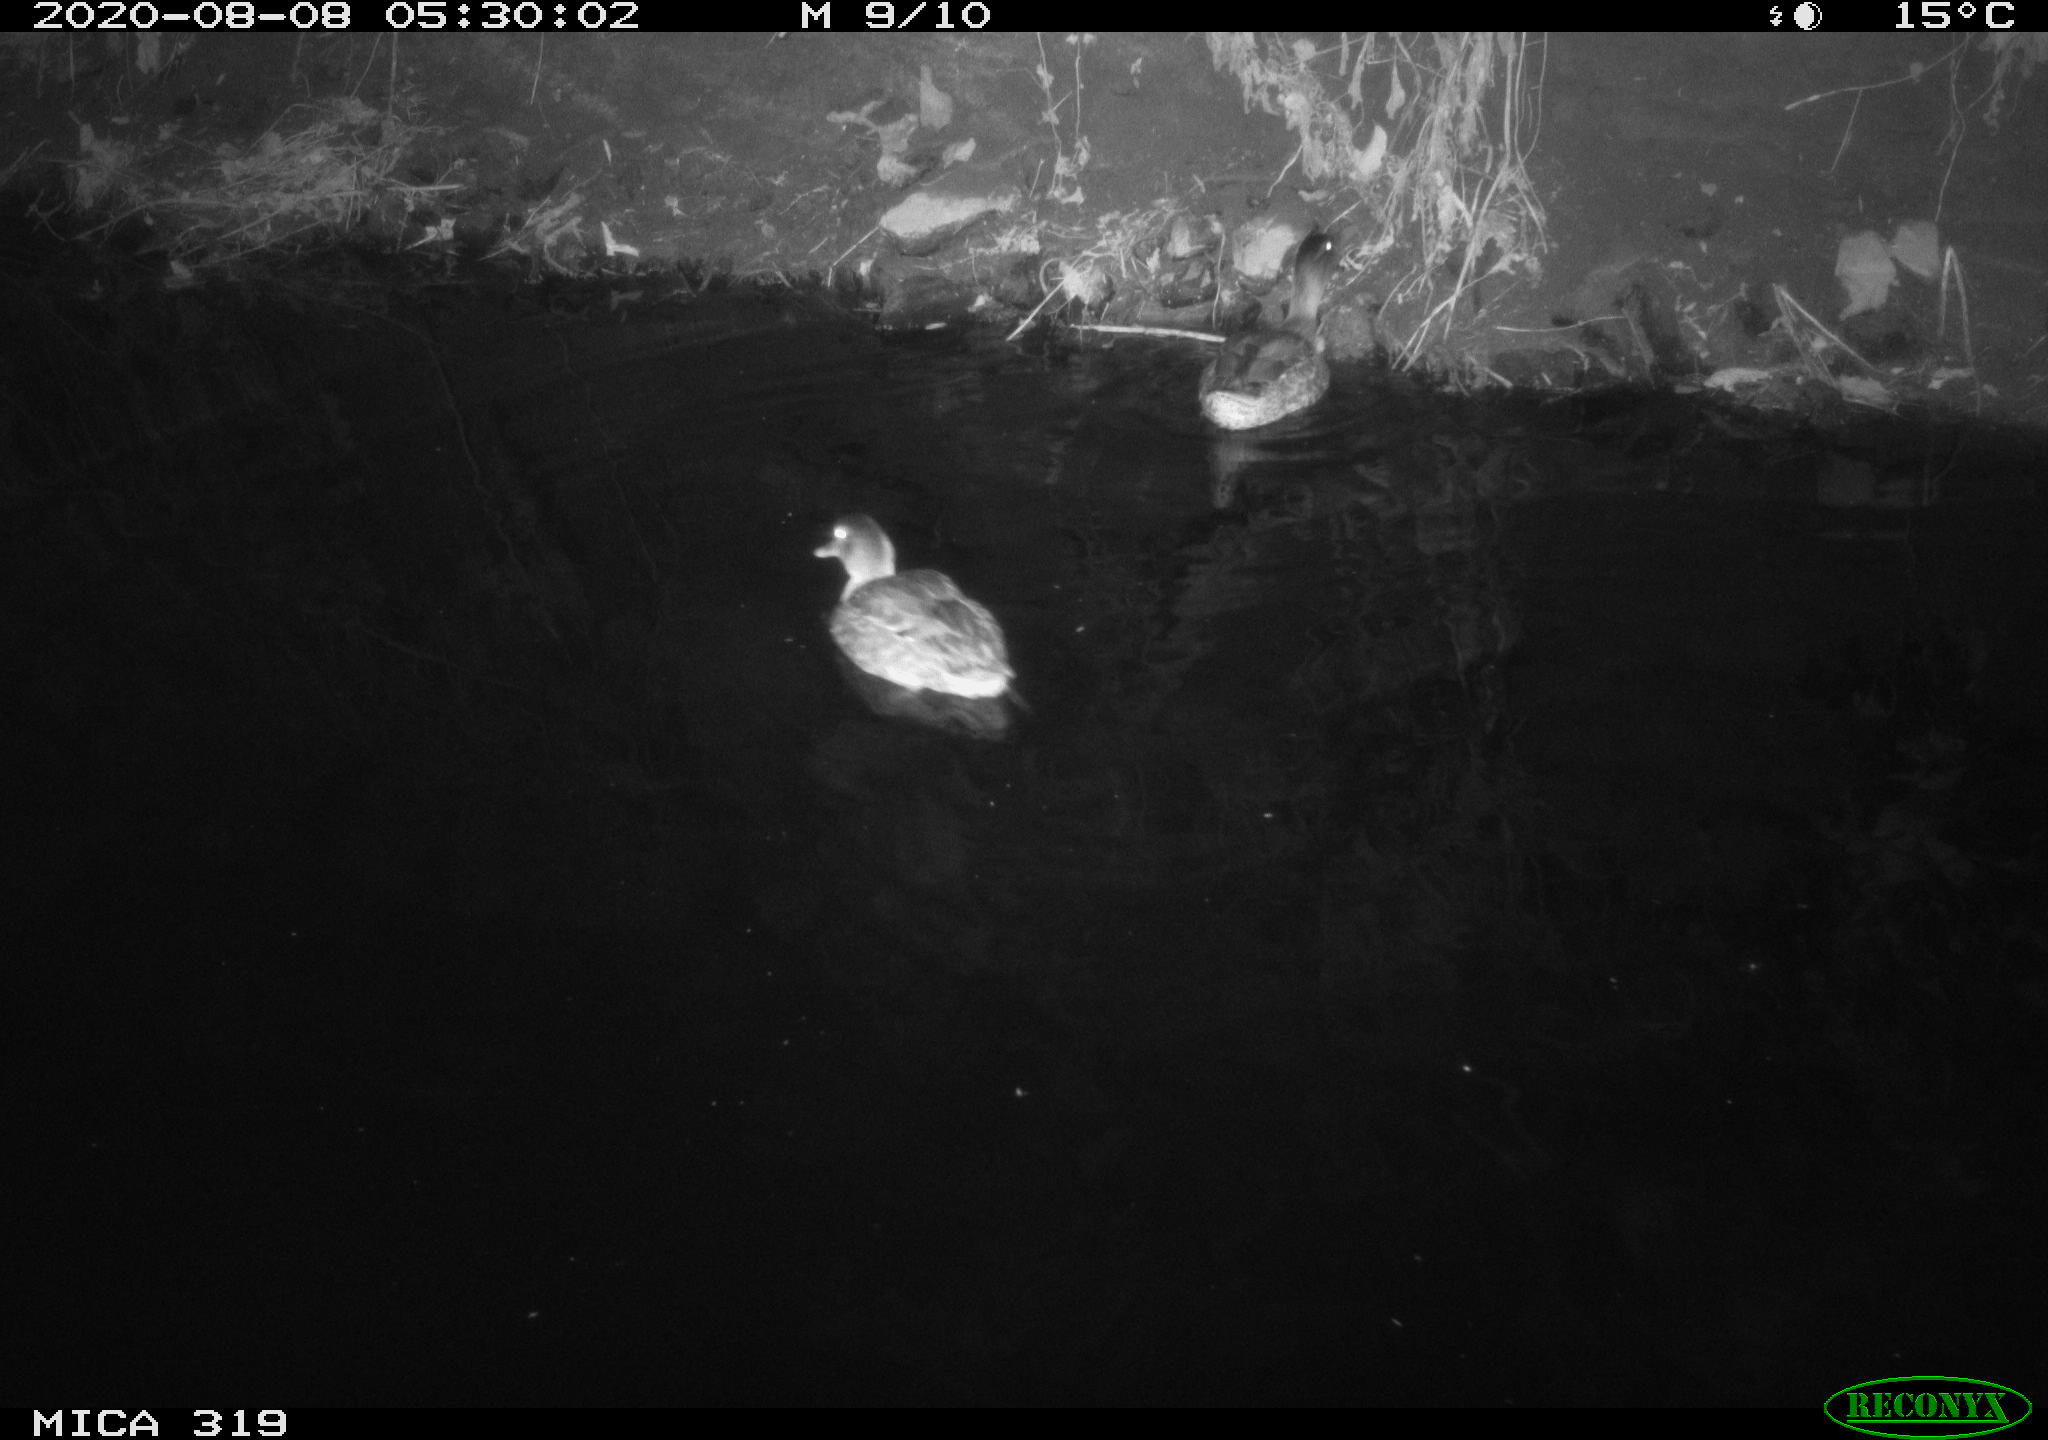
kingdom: Animalia
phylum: Chordata
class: Aves
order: Anseriformes
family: Anatidae
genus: Anas
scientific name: Anas platyrhynchos
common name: Mallard
